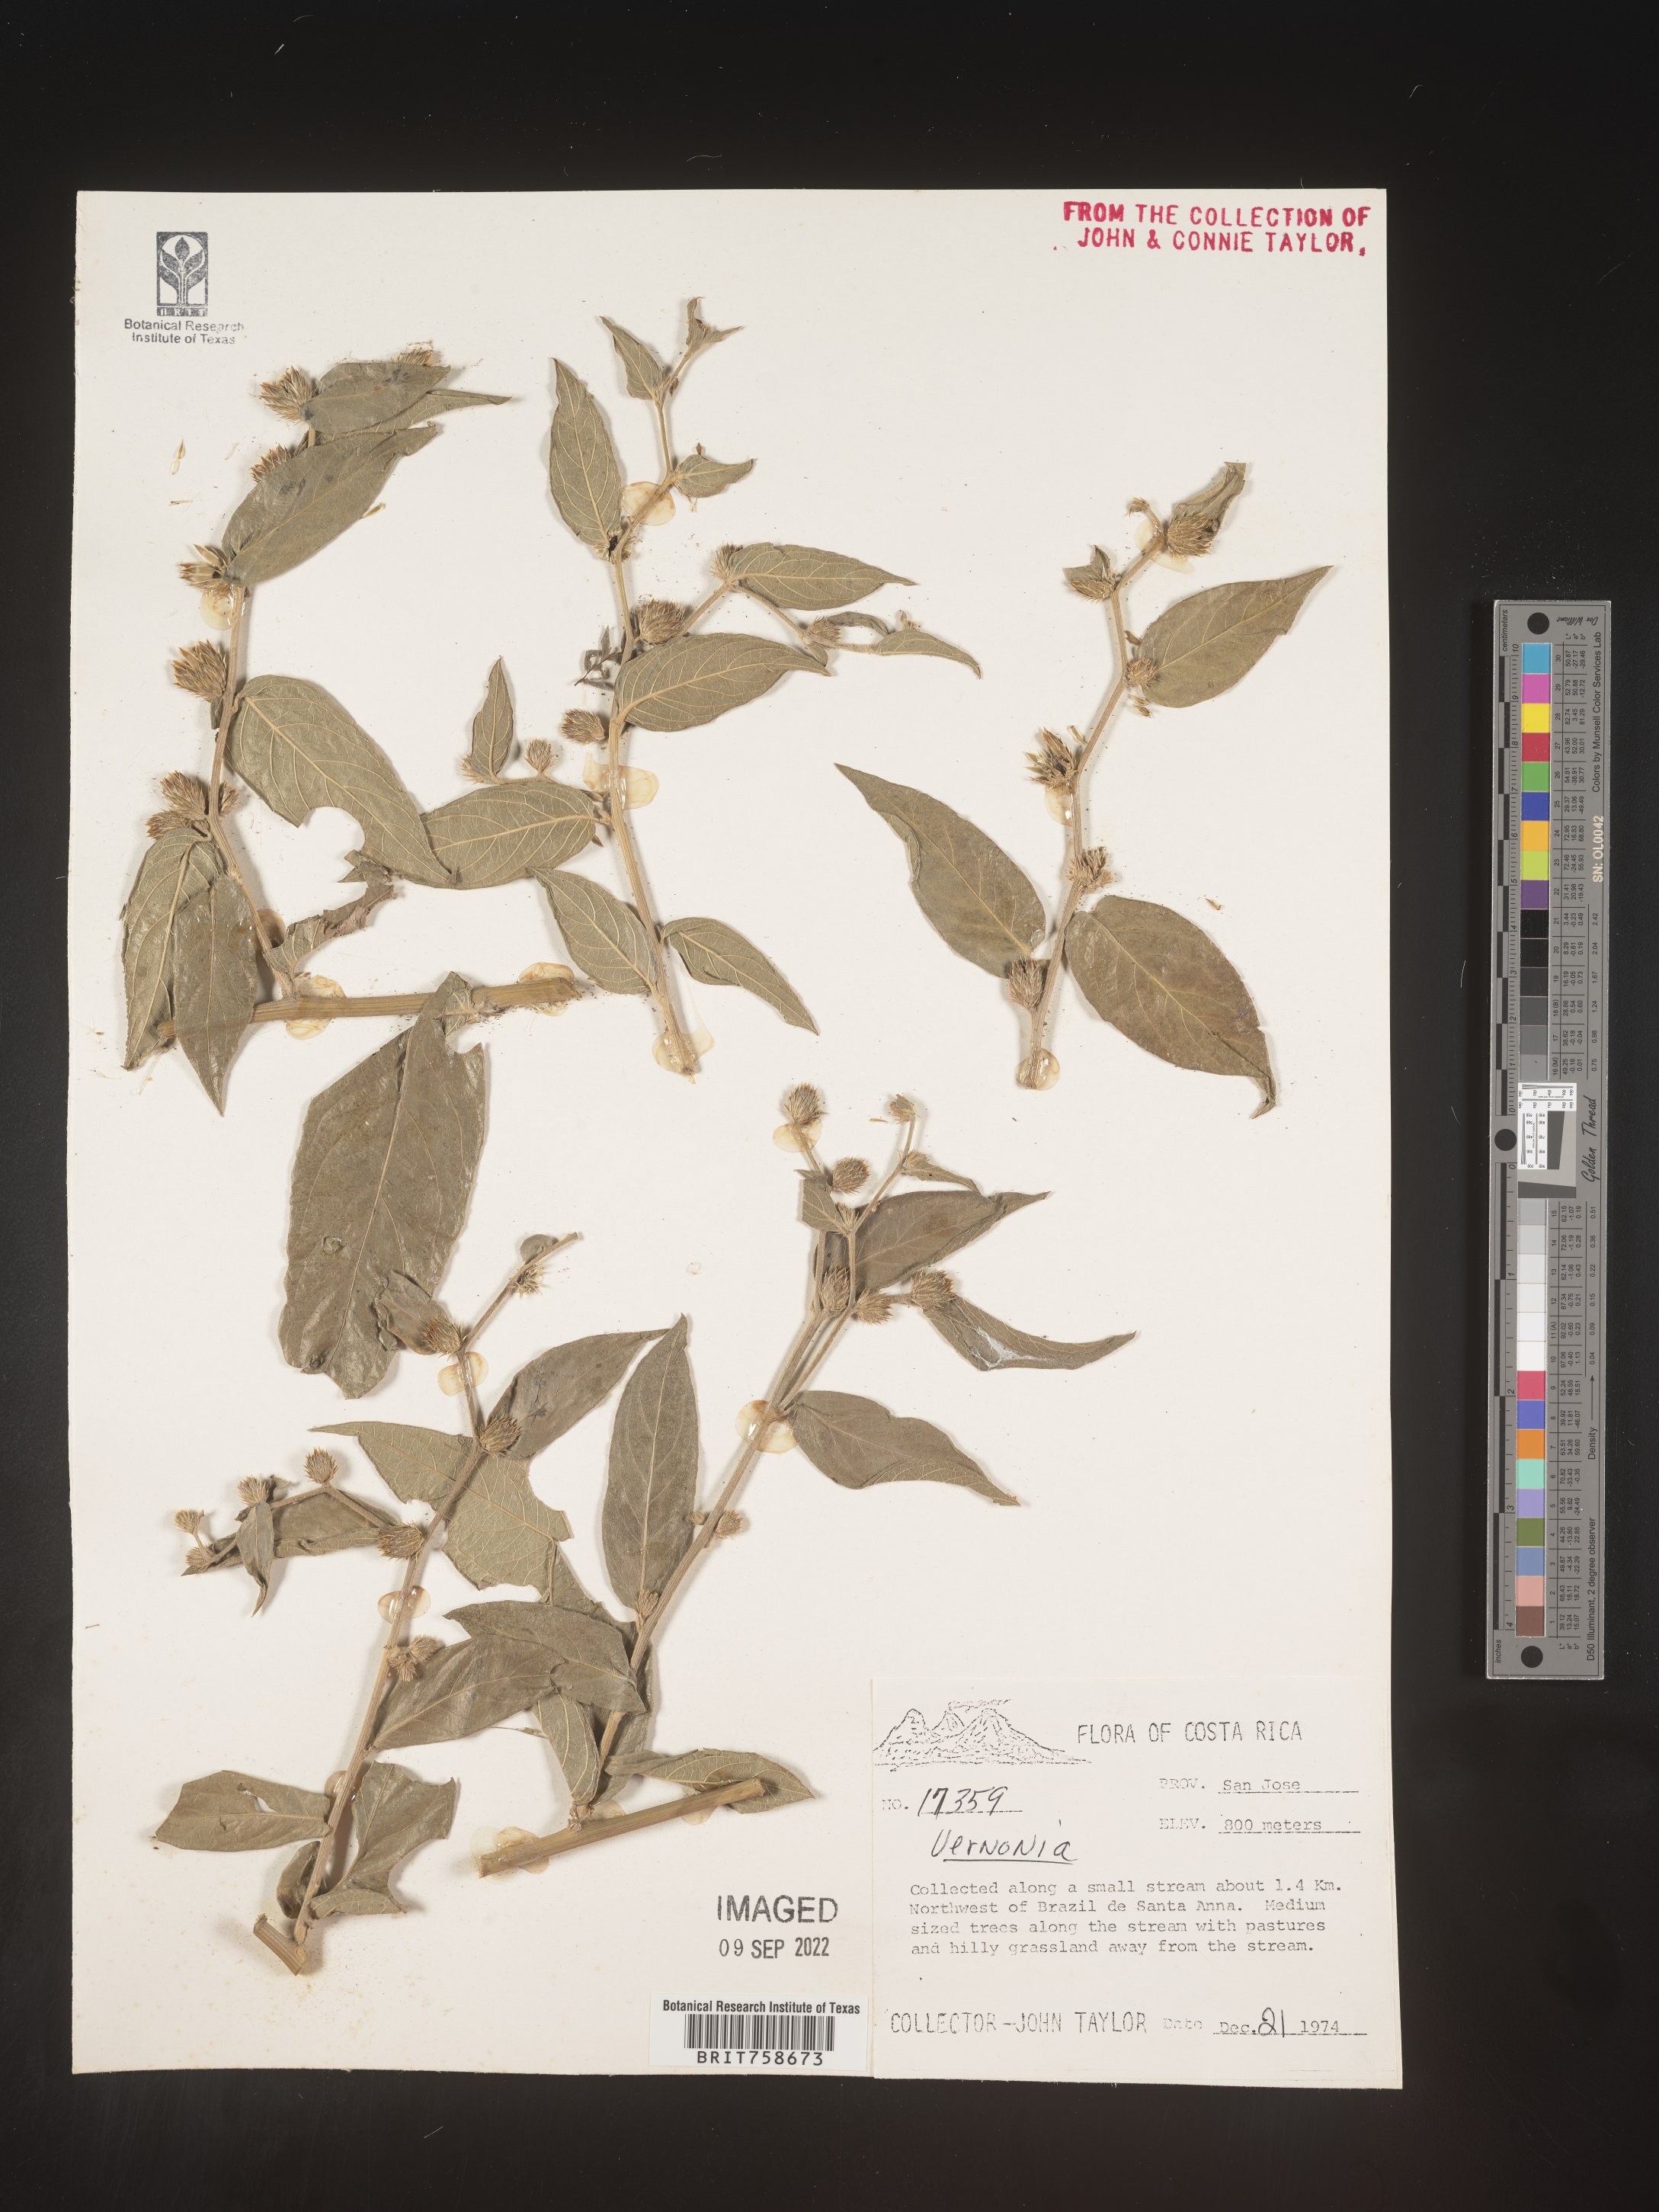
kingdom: Plantae
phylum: Tracheophyta
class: Magnoliopsida
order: Asterales
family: Asteraceae
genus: Vernonia
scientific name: Vernonia
